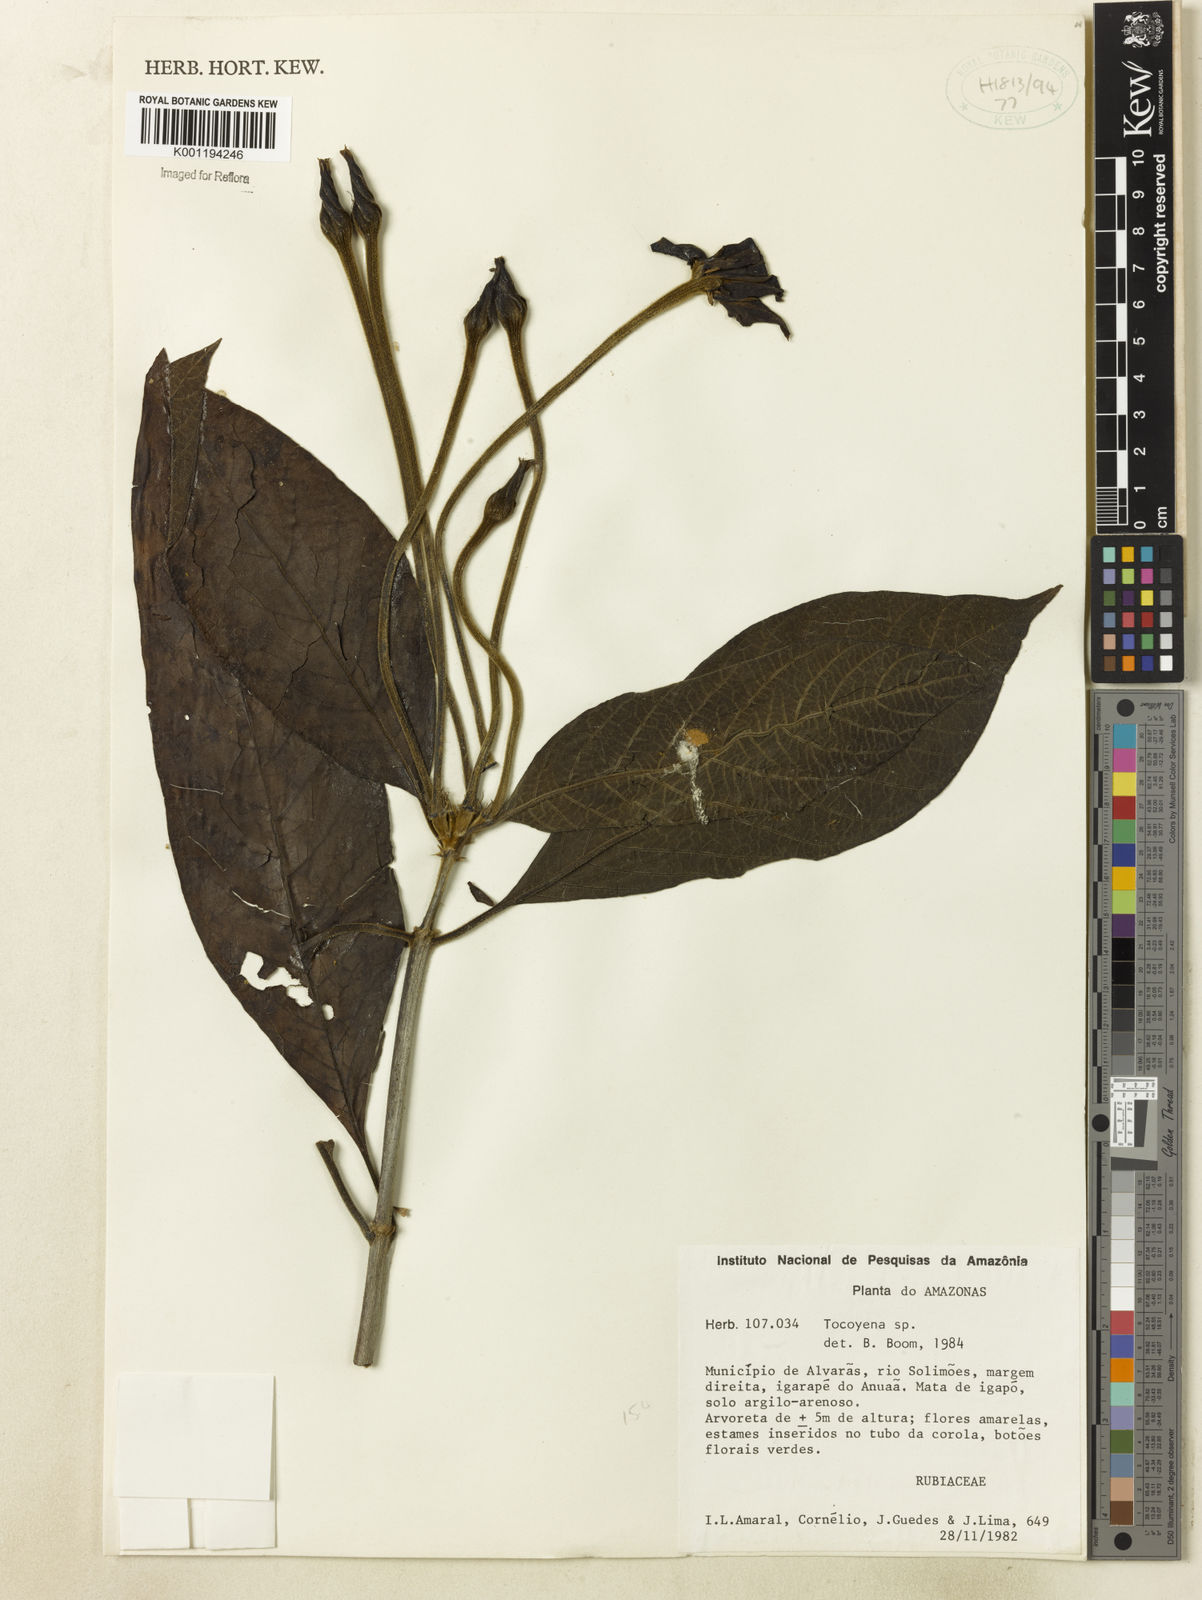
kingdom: Plantae
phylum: Tracheophyta
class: Magnoliopsida
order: Gentianales
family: Rubiaceae
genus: Rosenbergiodendron
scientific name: Rosenbergiodendron longiflorum
